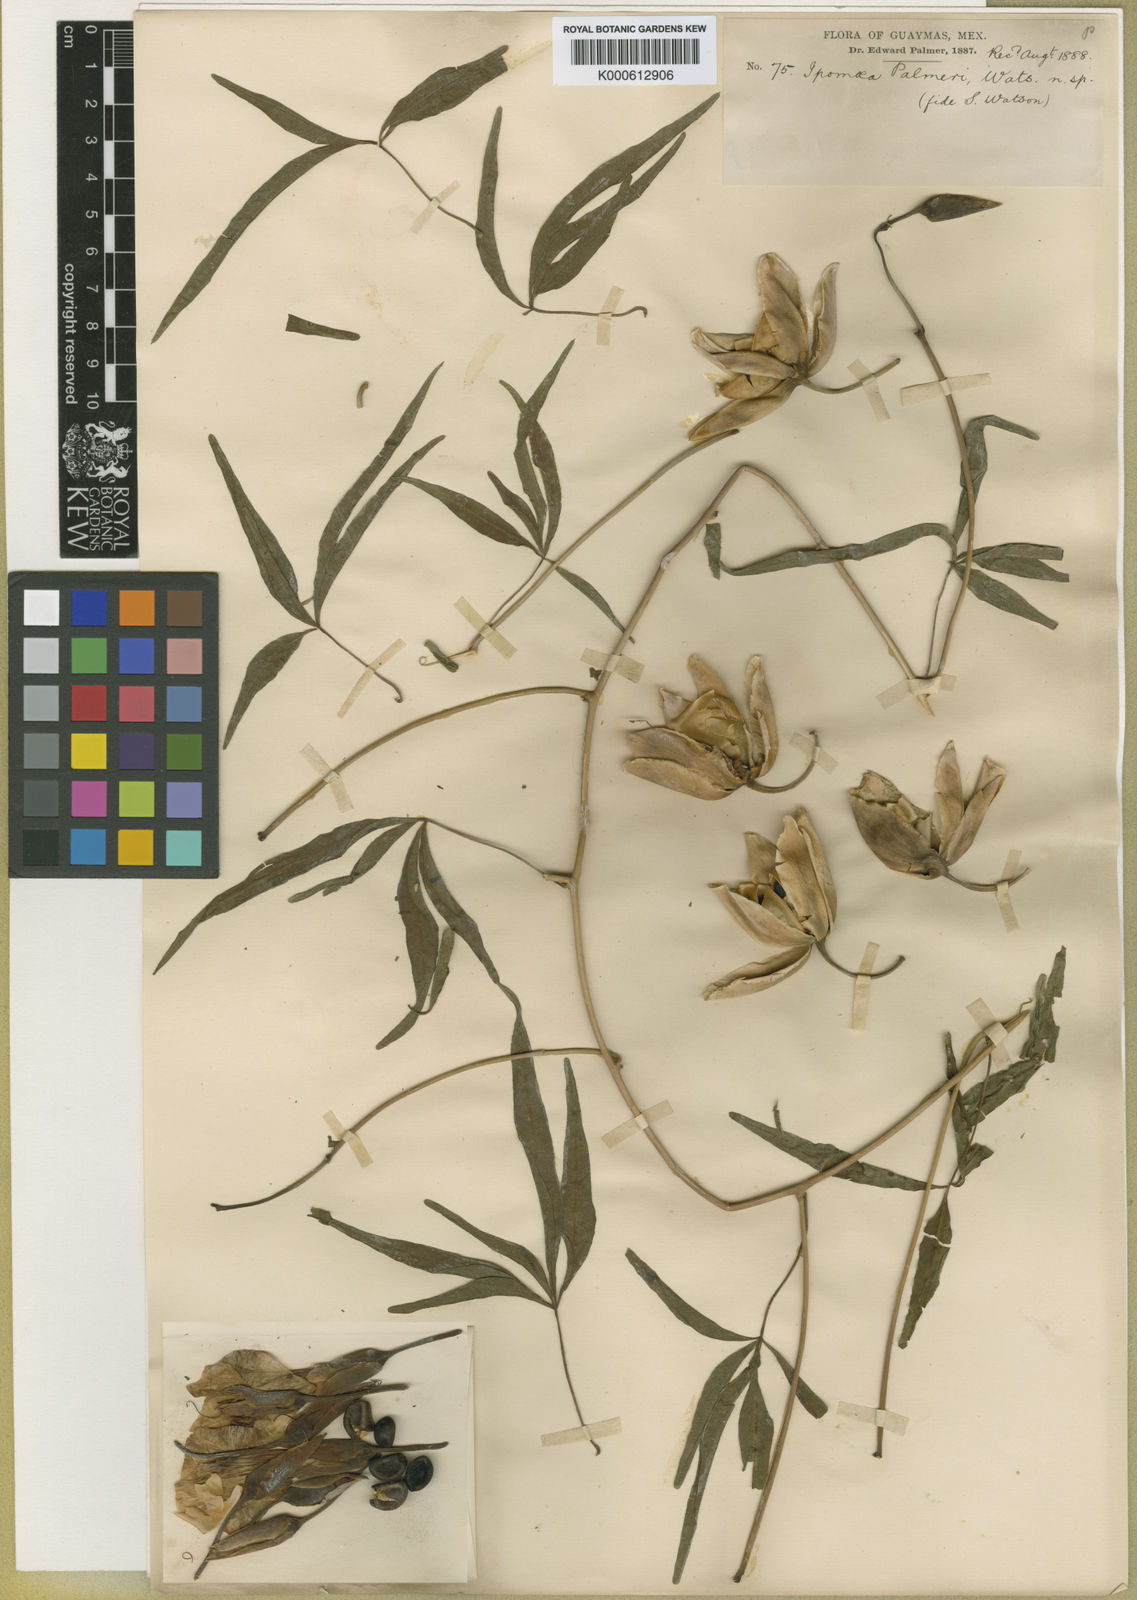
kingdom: Plantae
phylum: Tracheophyta
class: Magnoliopsida
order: Solanales
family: Convolvulaceae
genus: Distimake
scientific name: Distimake palmeri
